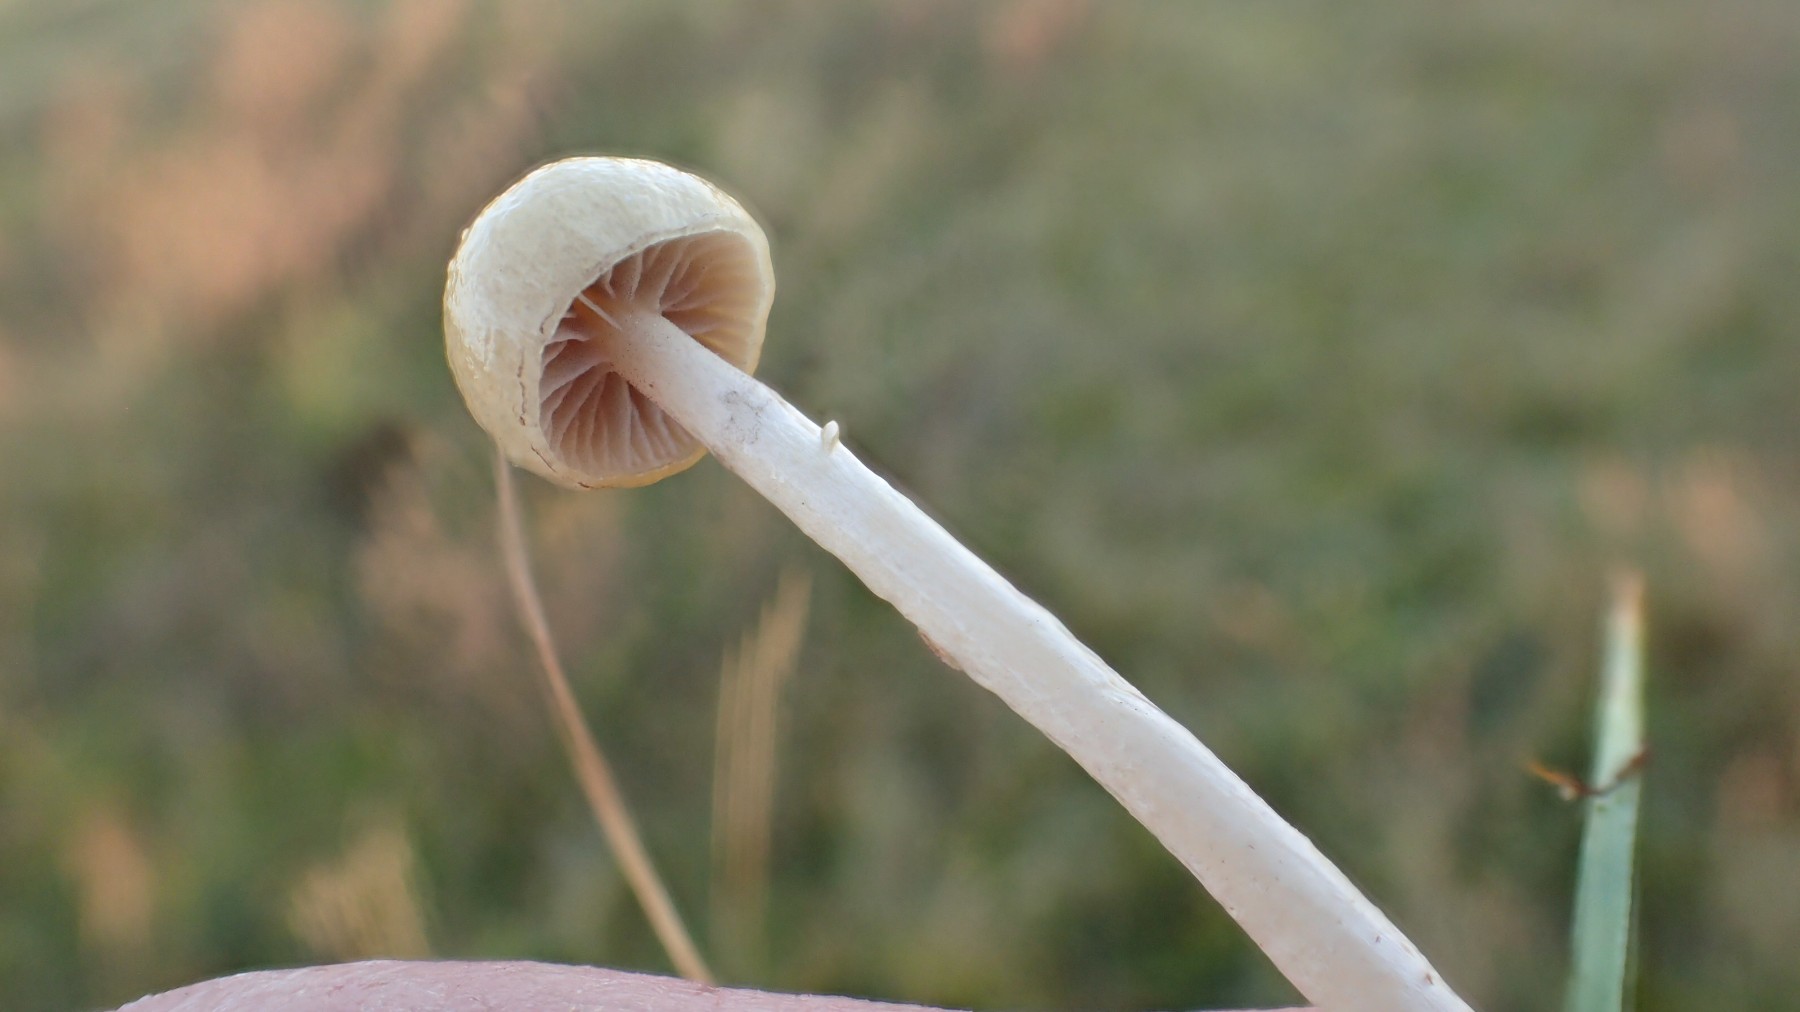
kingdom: Fungi
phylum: Basidiomycota
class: Agaricomycetes
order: Agaricales
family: Strophariaceae
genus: Protostropharia
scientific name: Protostropharia semiglobata
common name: halvkugleformet bredblad
